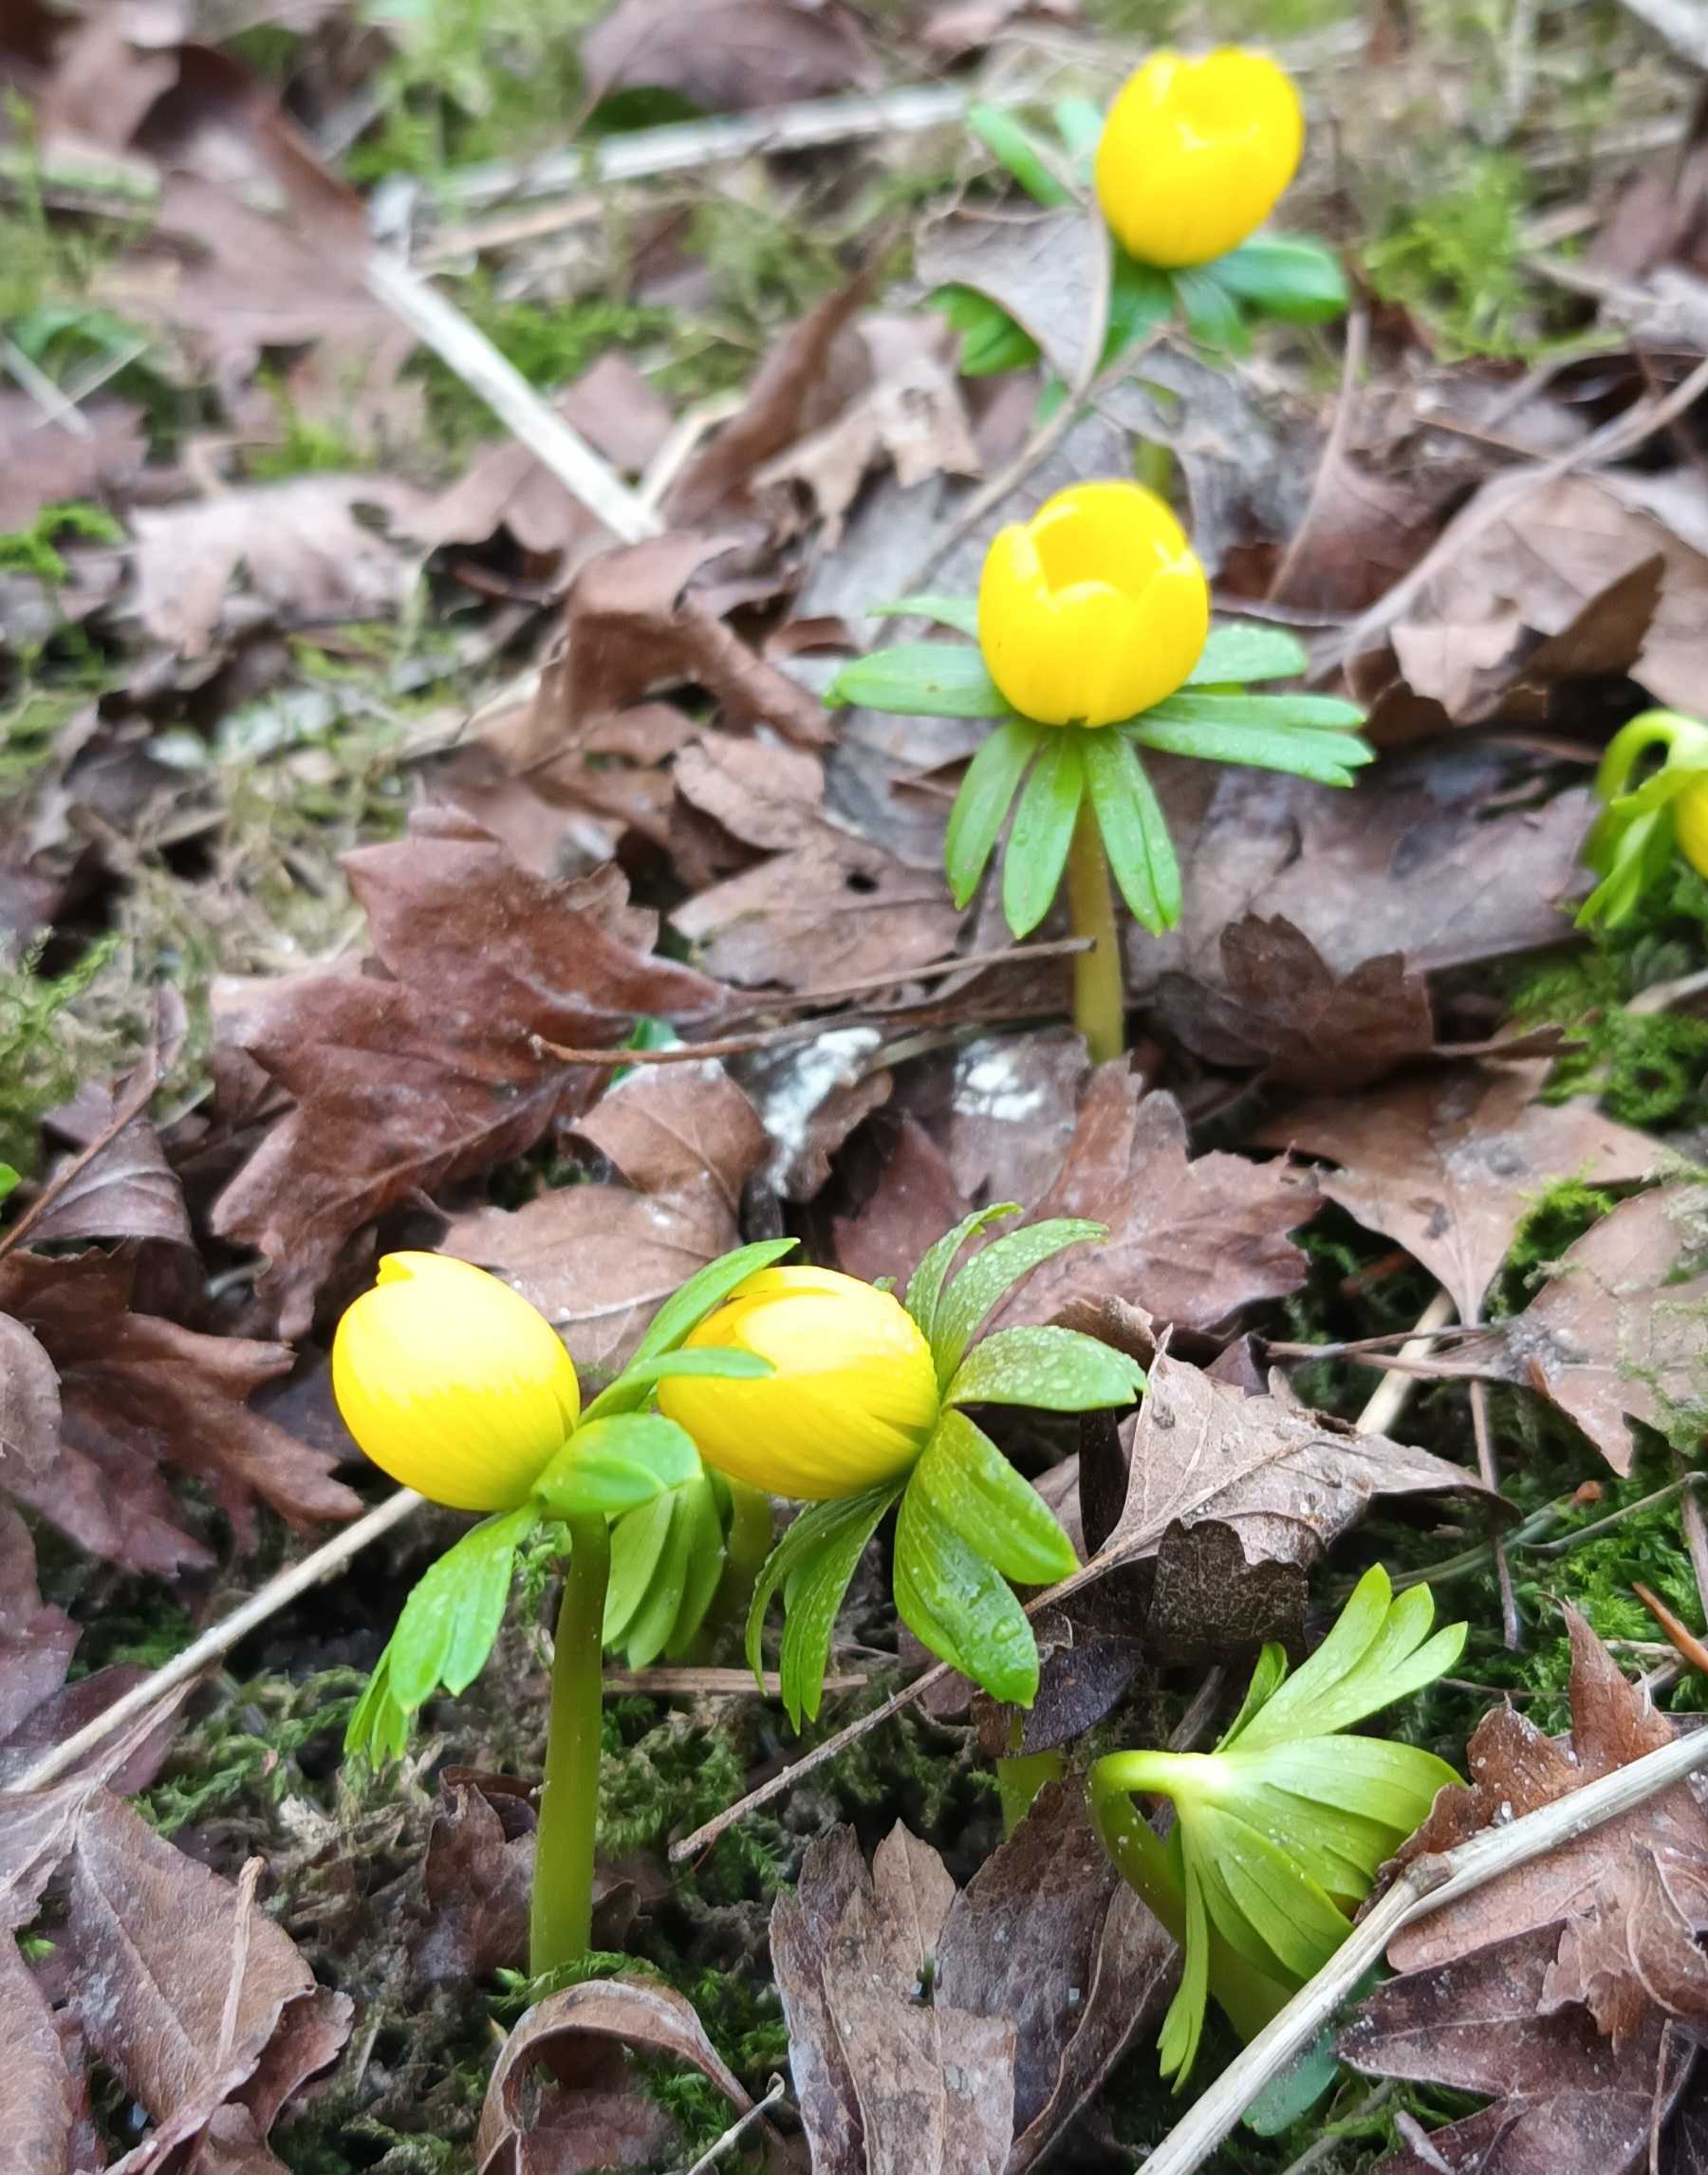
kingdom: Plantae
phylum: Tracheophyta
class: Magnoliopsida
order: Ranunculales
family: Ranunculaceae
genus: Eranthis
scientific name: Eranthis hyemalis
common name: Erantis
